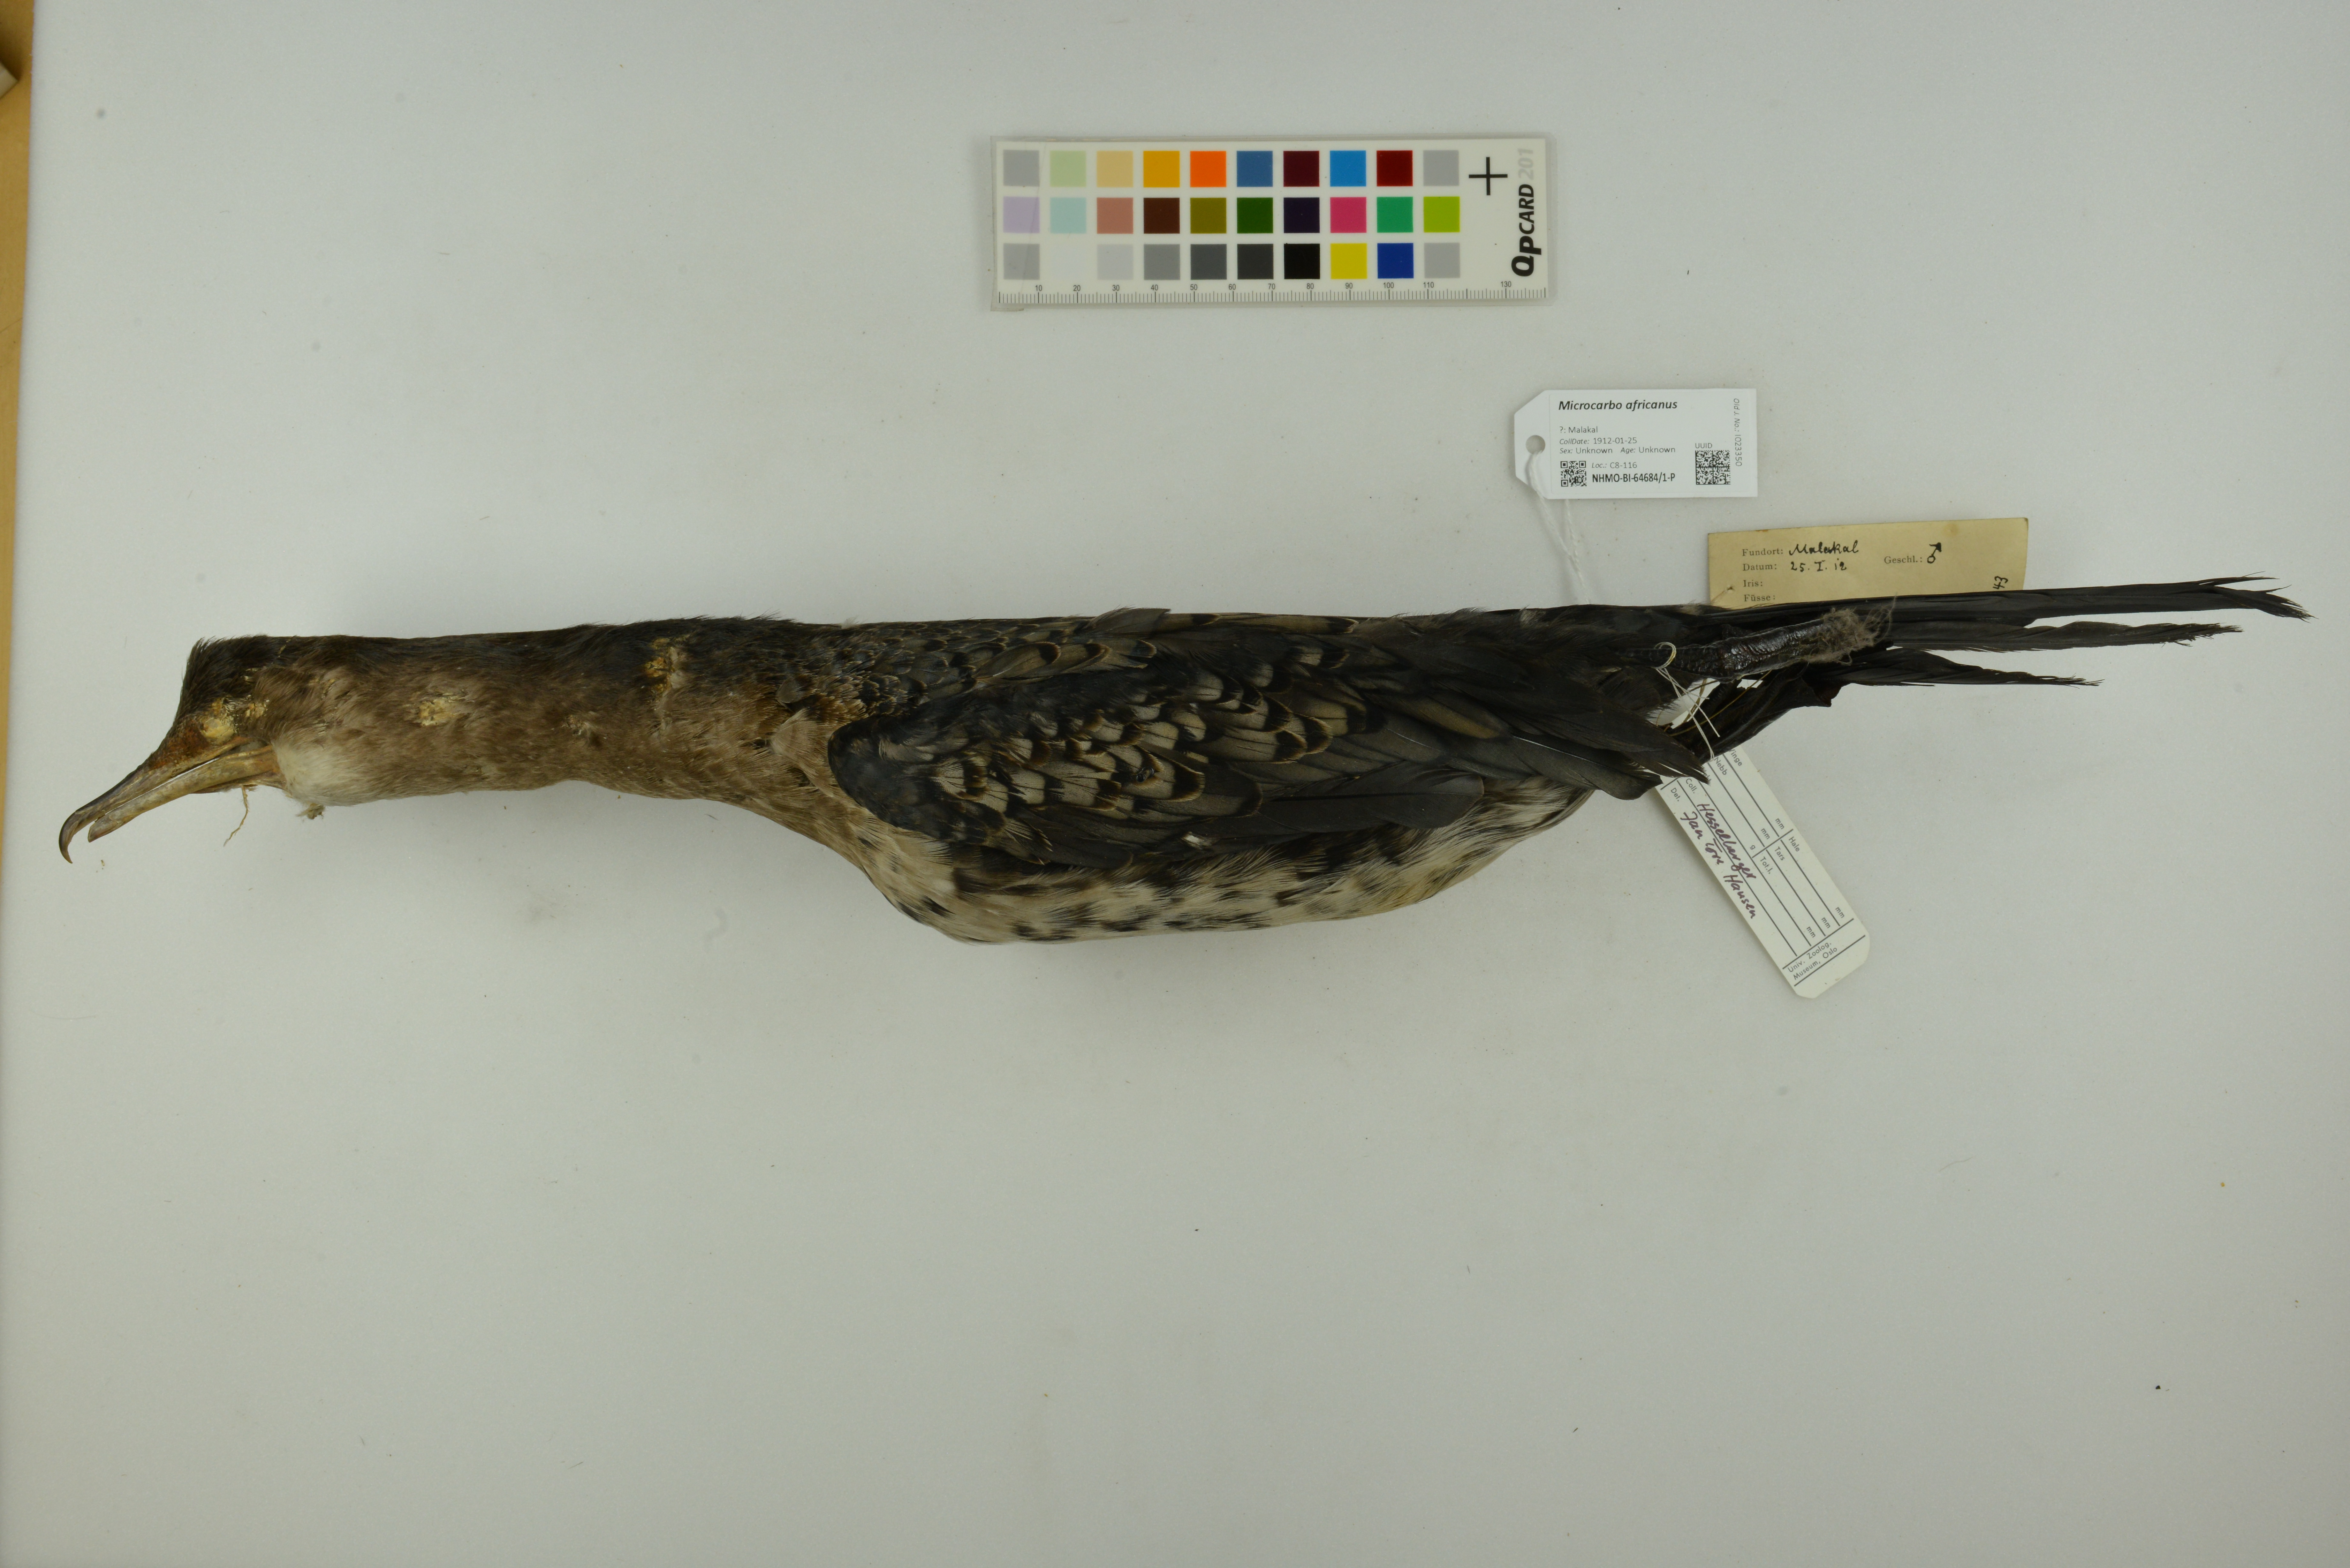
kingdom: Animalia
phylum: Chordata
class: Aves
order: Suliformes
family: Phalacrocoracidae
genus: Microcarbo
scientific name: Microcarbo africanus
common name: Long-tailed cormorant
